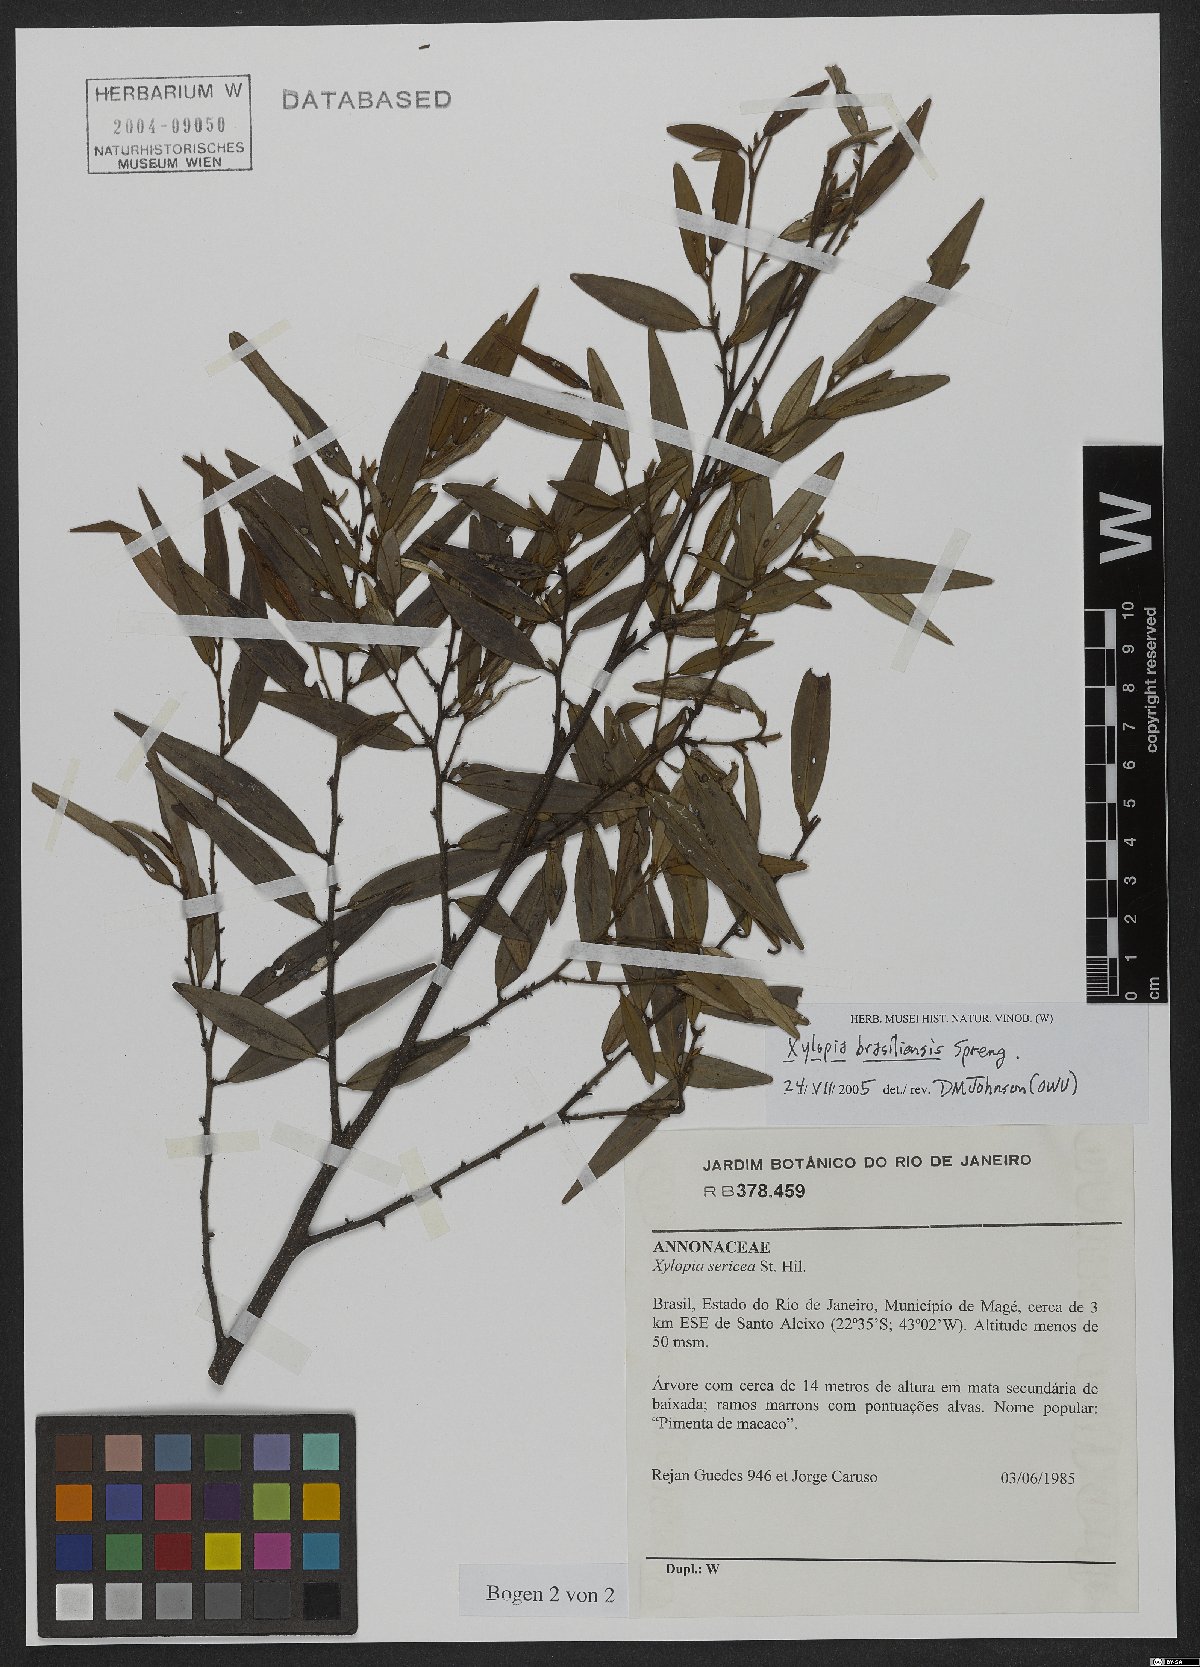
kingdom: Plantae
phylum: Tracheophyta
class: Magnoliopsida
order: Magnoliales
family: Annonaceae
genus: Xylopia
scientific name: Xylopia brasiliensis
